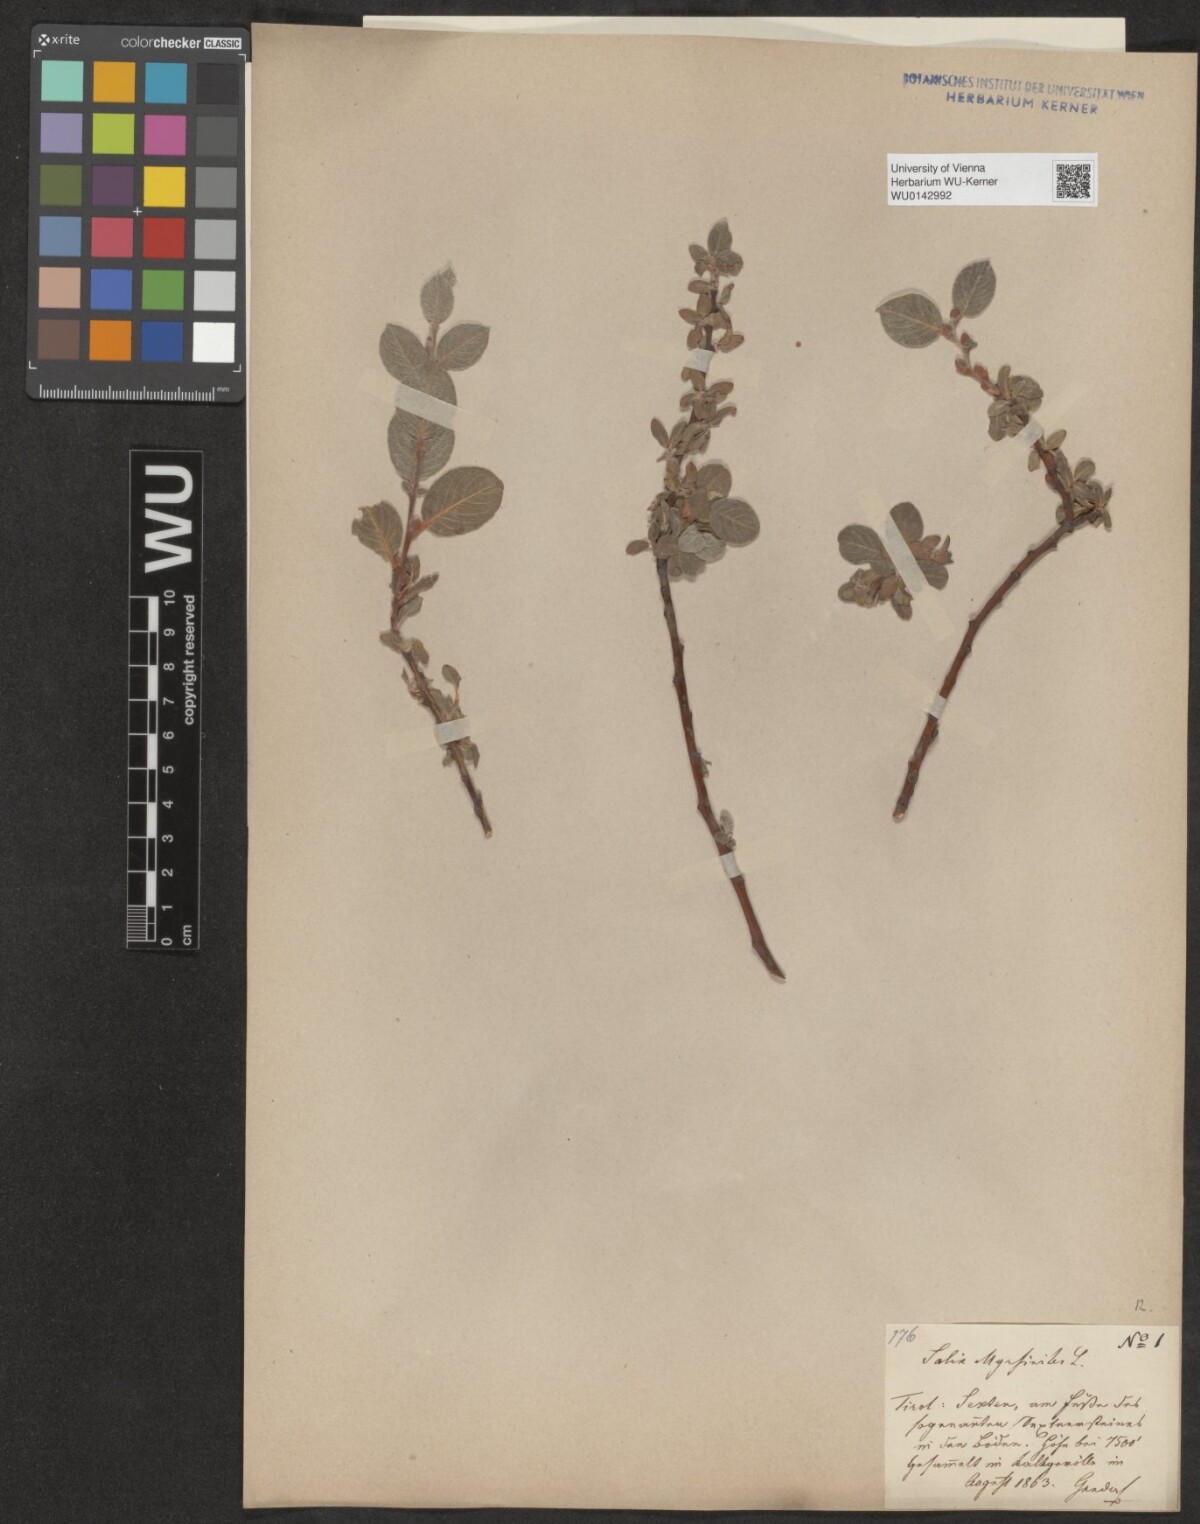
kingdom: Plantae
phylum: Tracheophyta
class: Magnoliopsida
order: Malpighiales
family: Salicaceae
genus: Salix
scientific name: Salix myrsinites
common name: Myrtle willow
